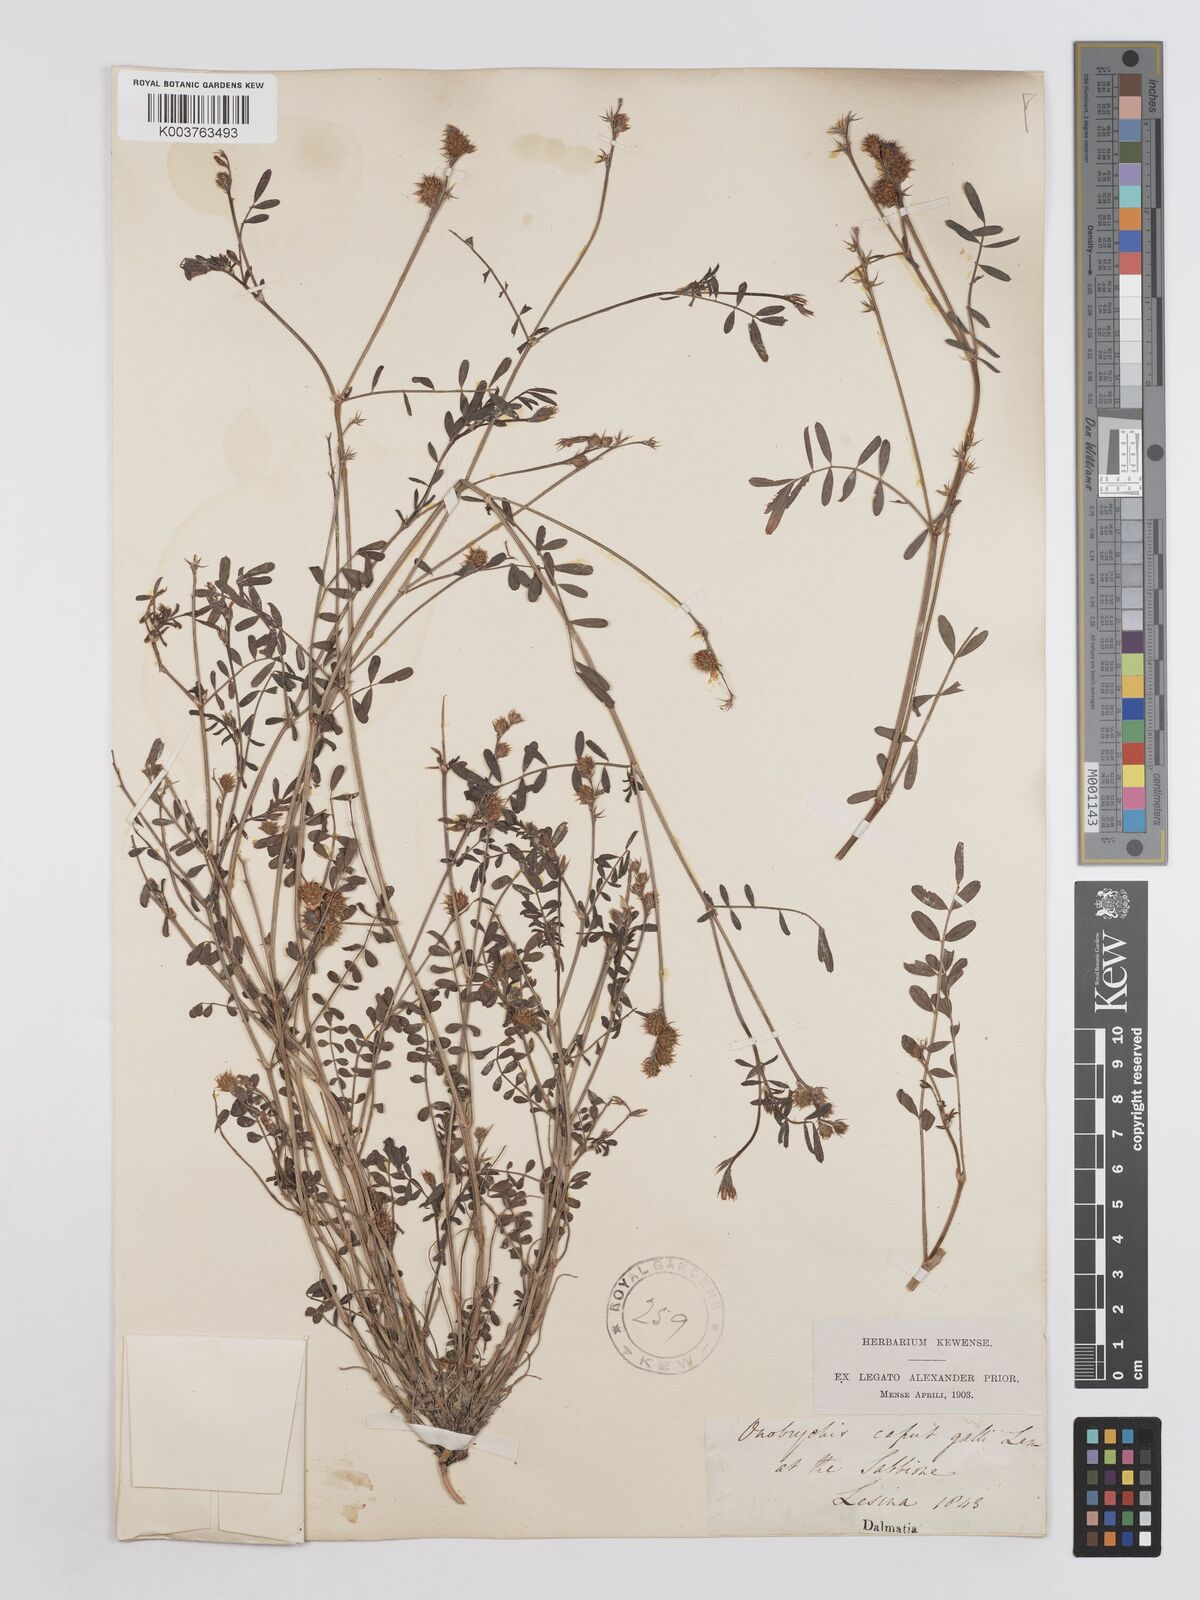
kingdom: Plantae
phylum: Tracheophyta
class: Magnoliopsida
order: Fabales
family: Fabaceae
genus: Onobrychis
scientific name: Onobrychis caput-galli
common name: Cockscomb sainfoin
